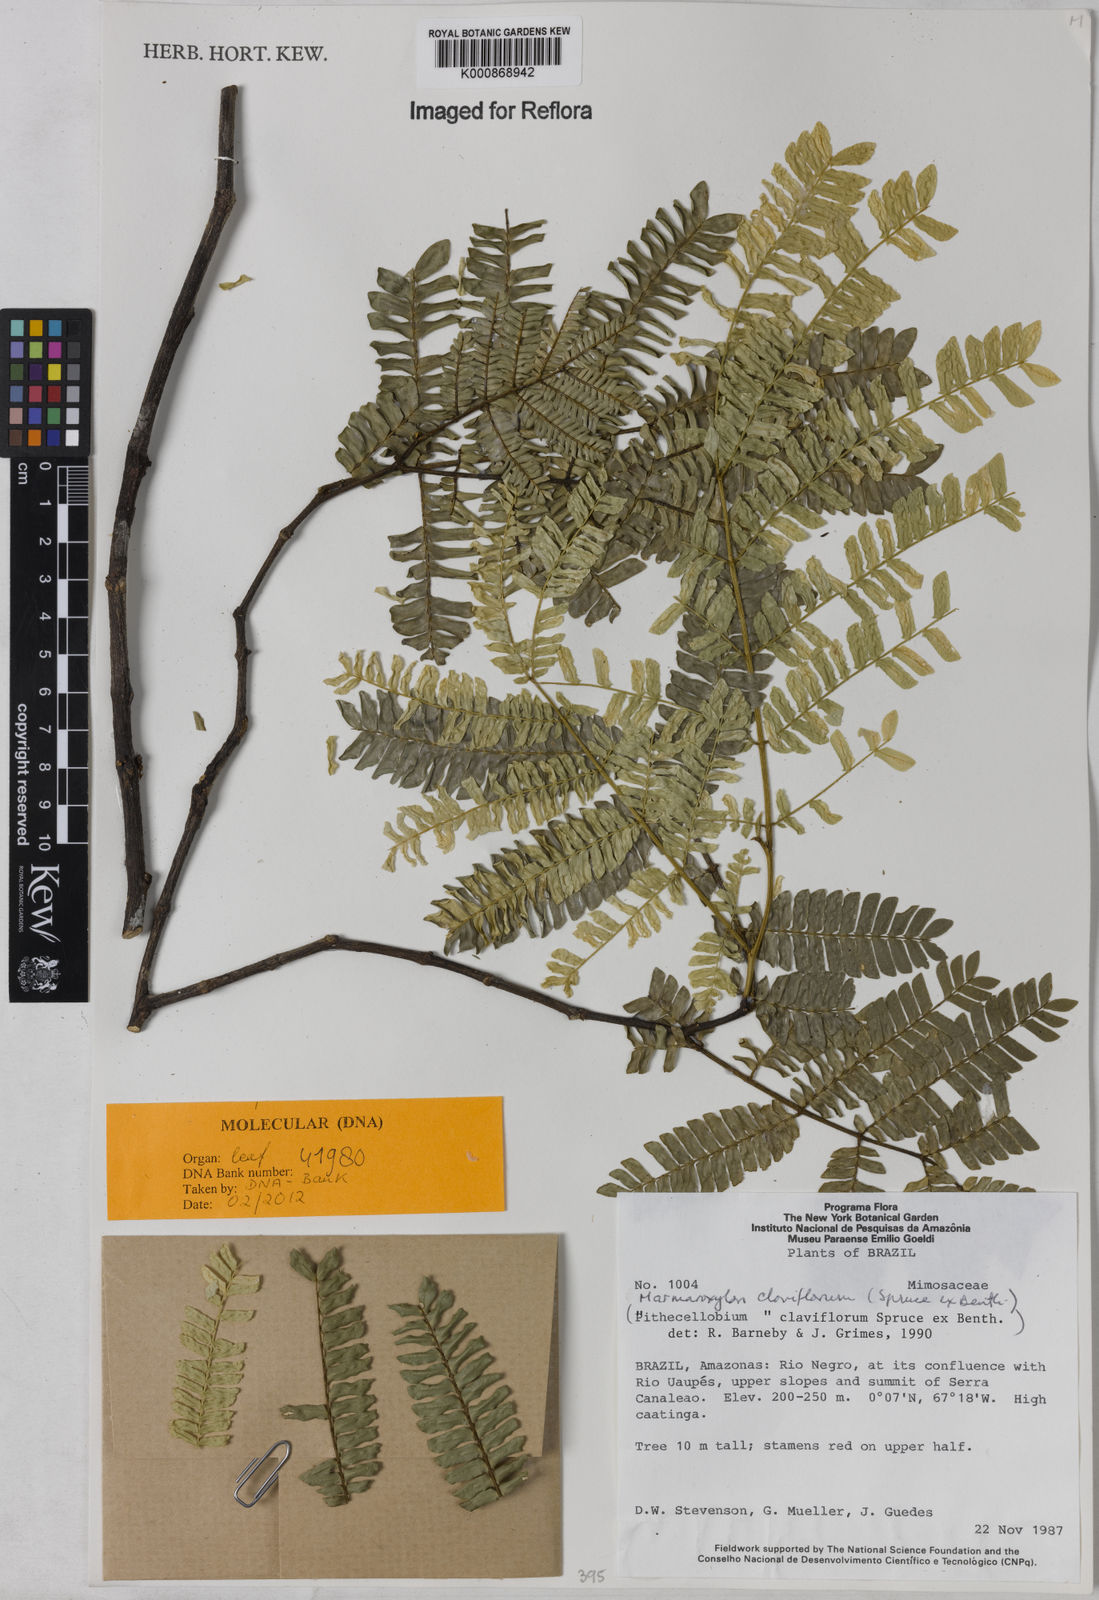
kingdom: Plantae
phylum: Tracheophyta
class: Magnoliopsida
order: Fabales
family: Fabaceae
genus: Zygia
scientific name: Zygia claviflora
